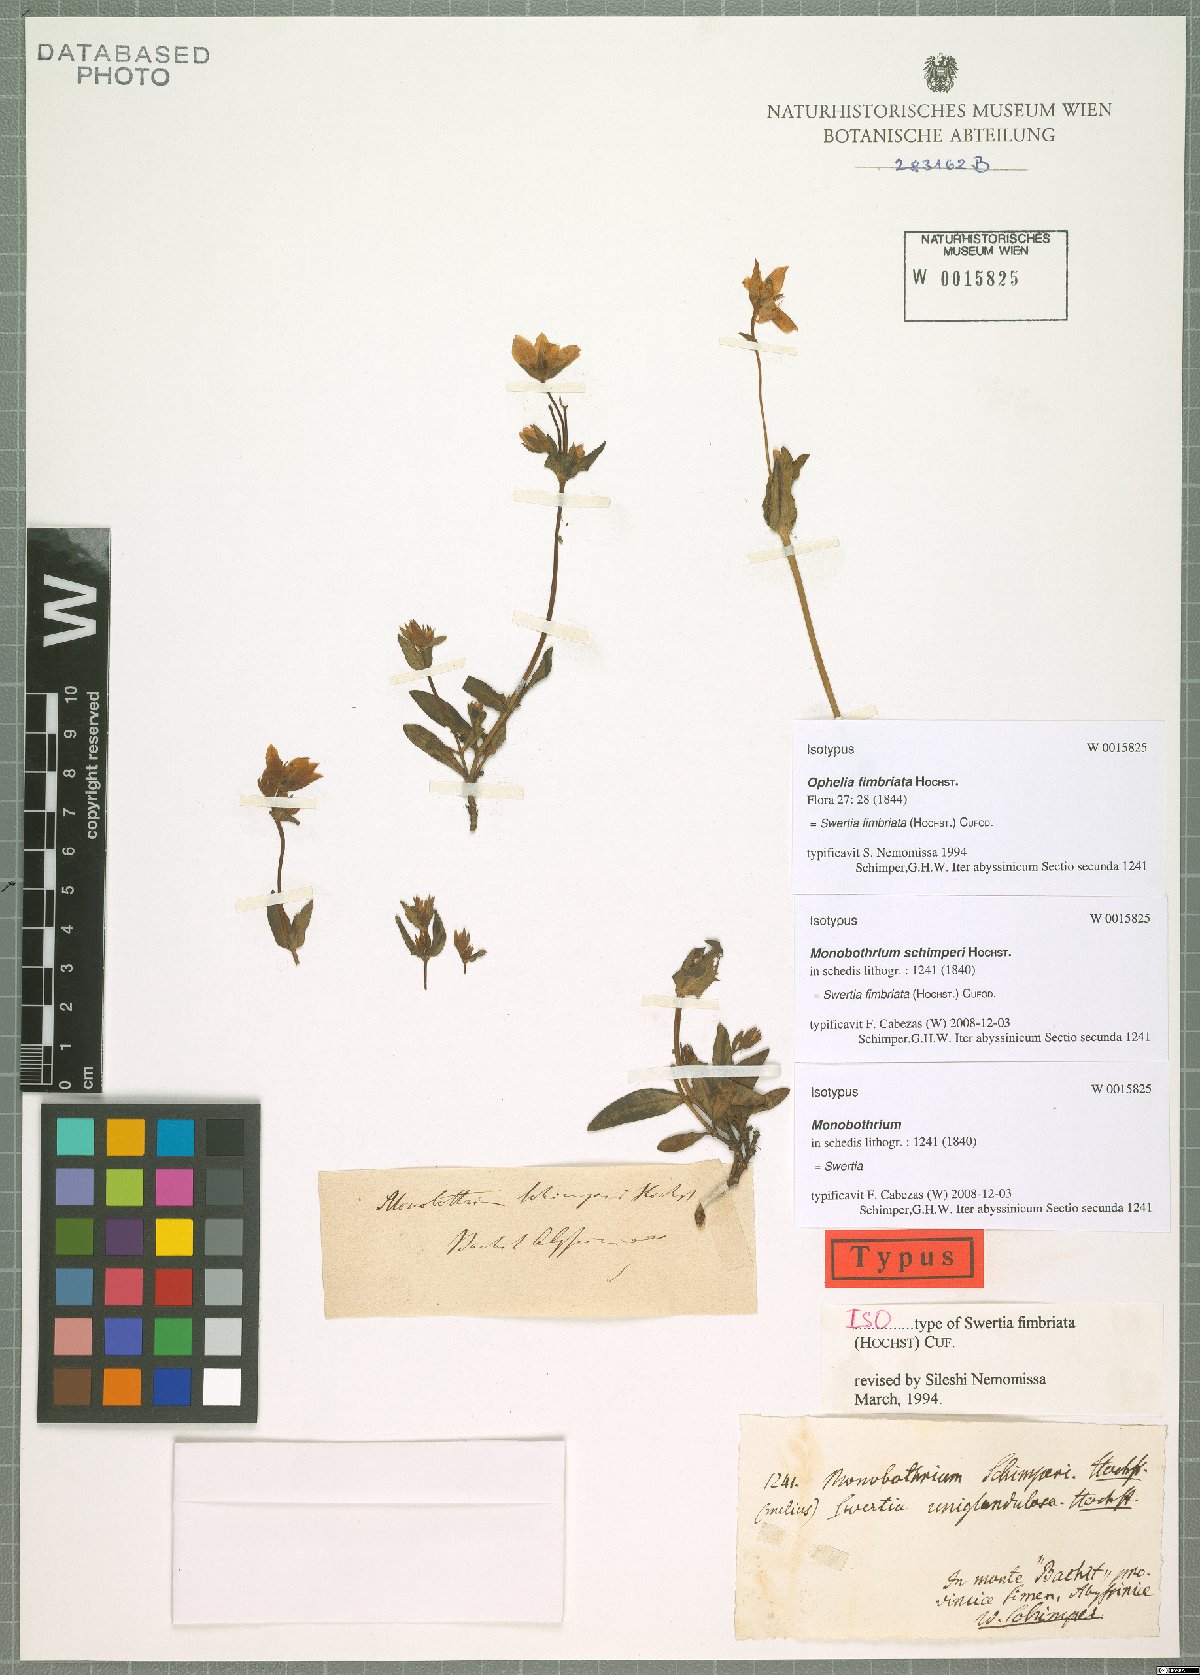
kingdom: Plantae
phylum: Tracheophyta
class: Magnoliopsida
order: Gentianales
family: Gentianaceae
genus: Swertia
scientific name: Swertia schimperi
